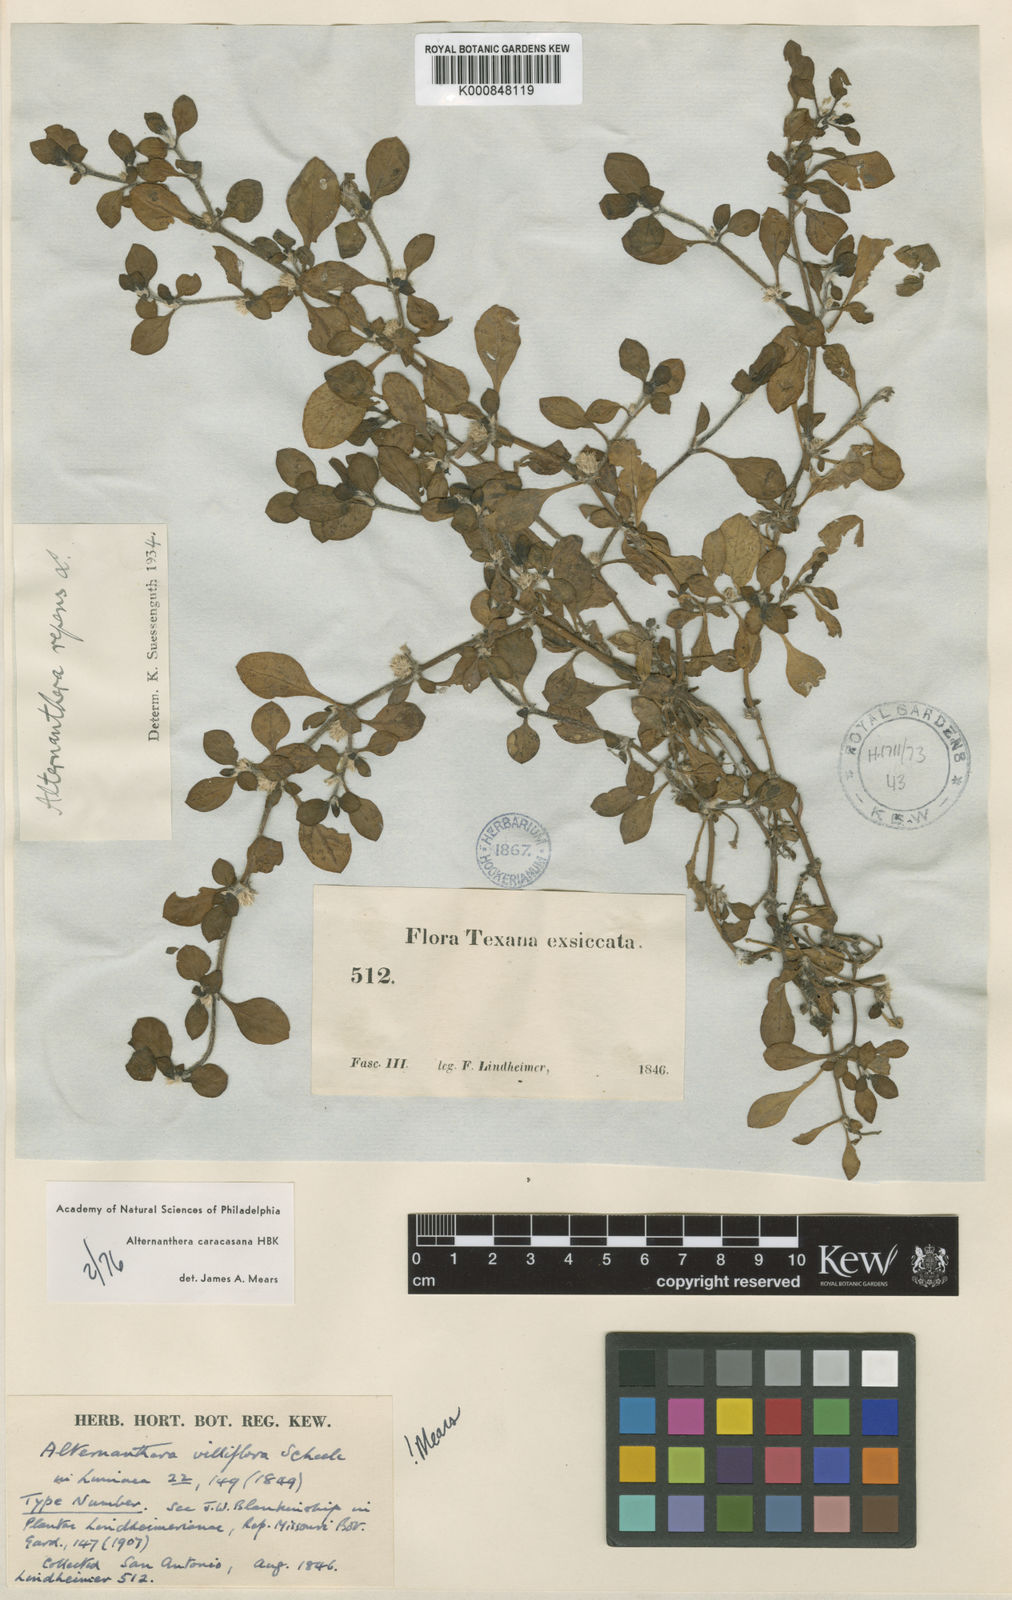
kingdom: Plantae
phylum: Tracheophyta
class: Magnoliopsida
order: Caryophyllales
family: Amaranthaceae
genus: Alternanthera
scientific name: Alternanthera caracasana
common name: Washerwoman
